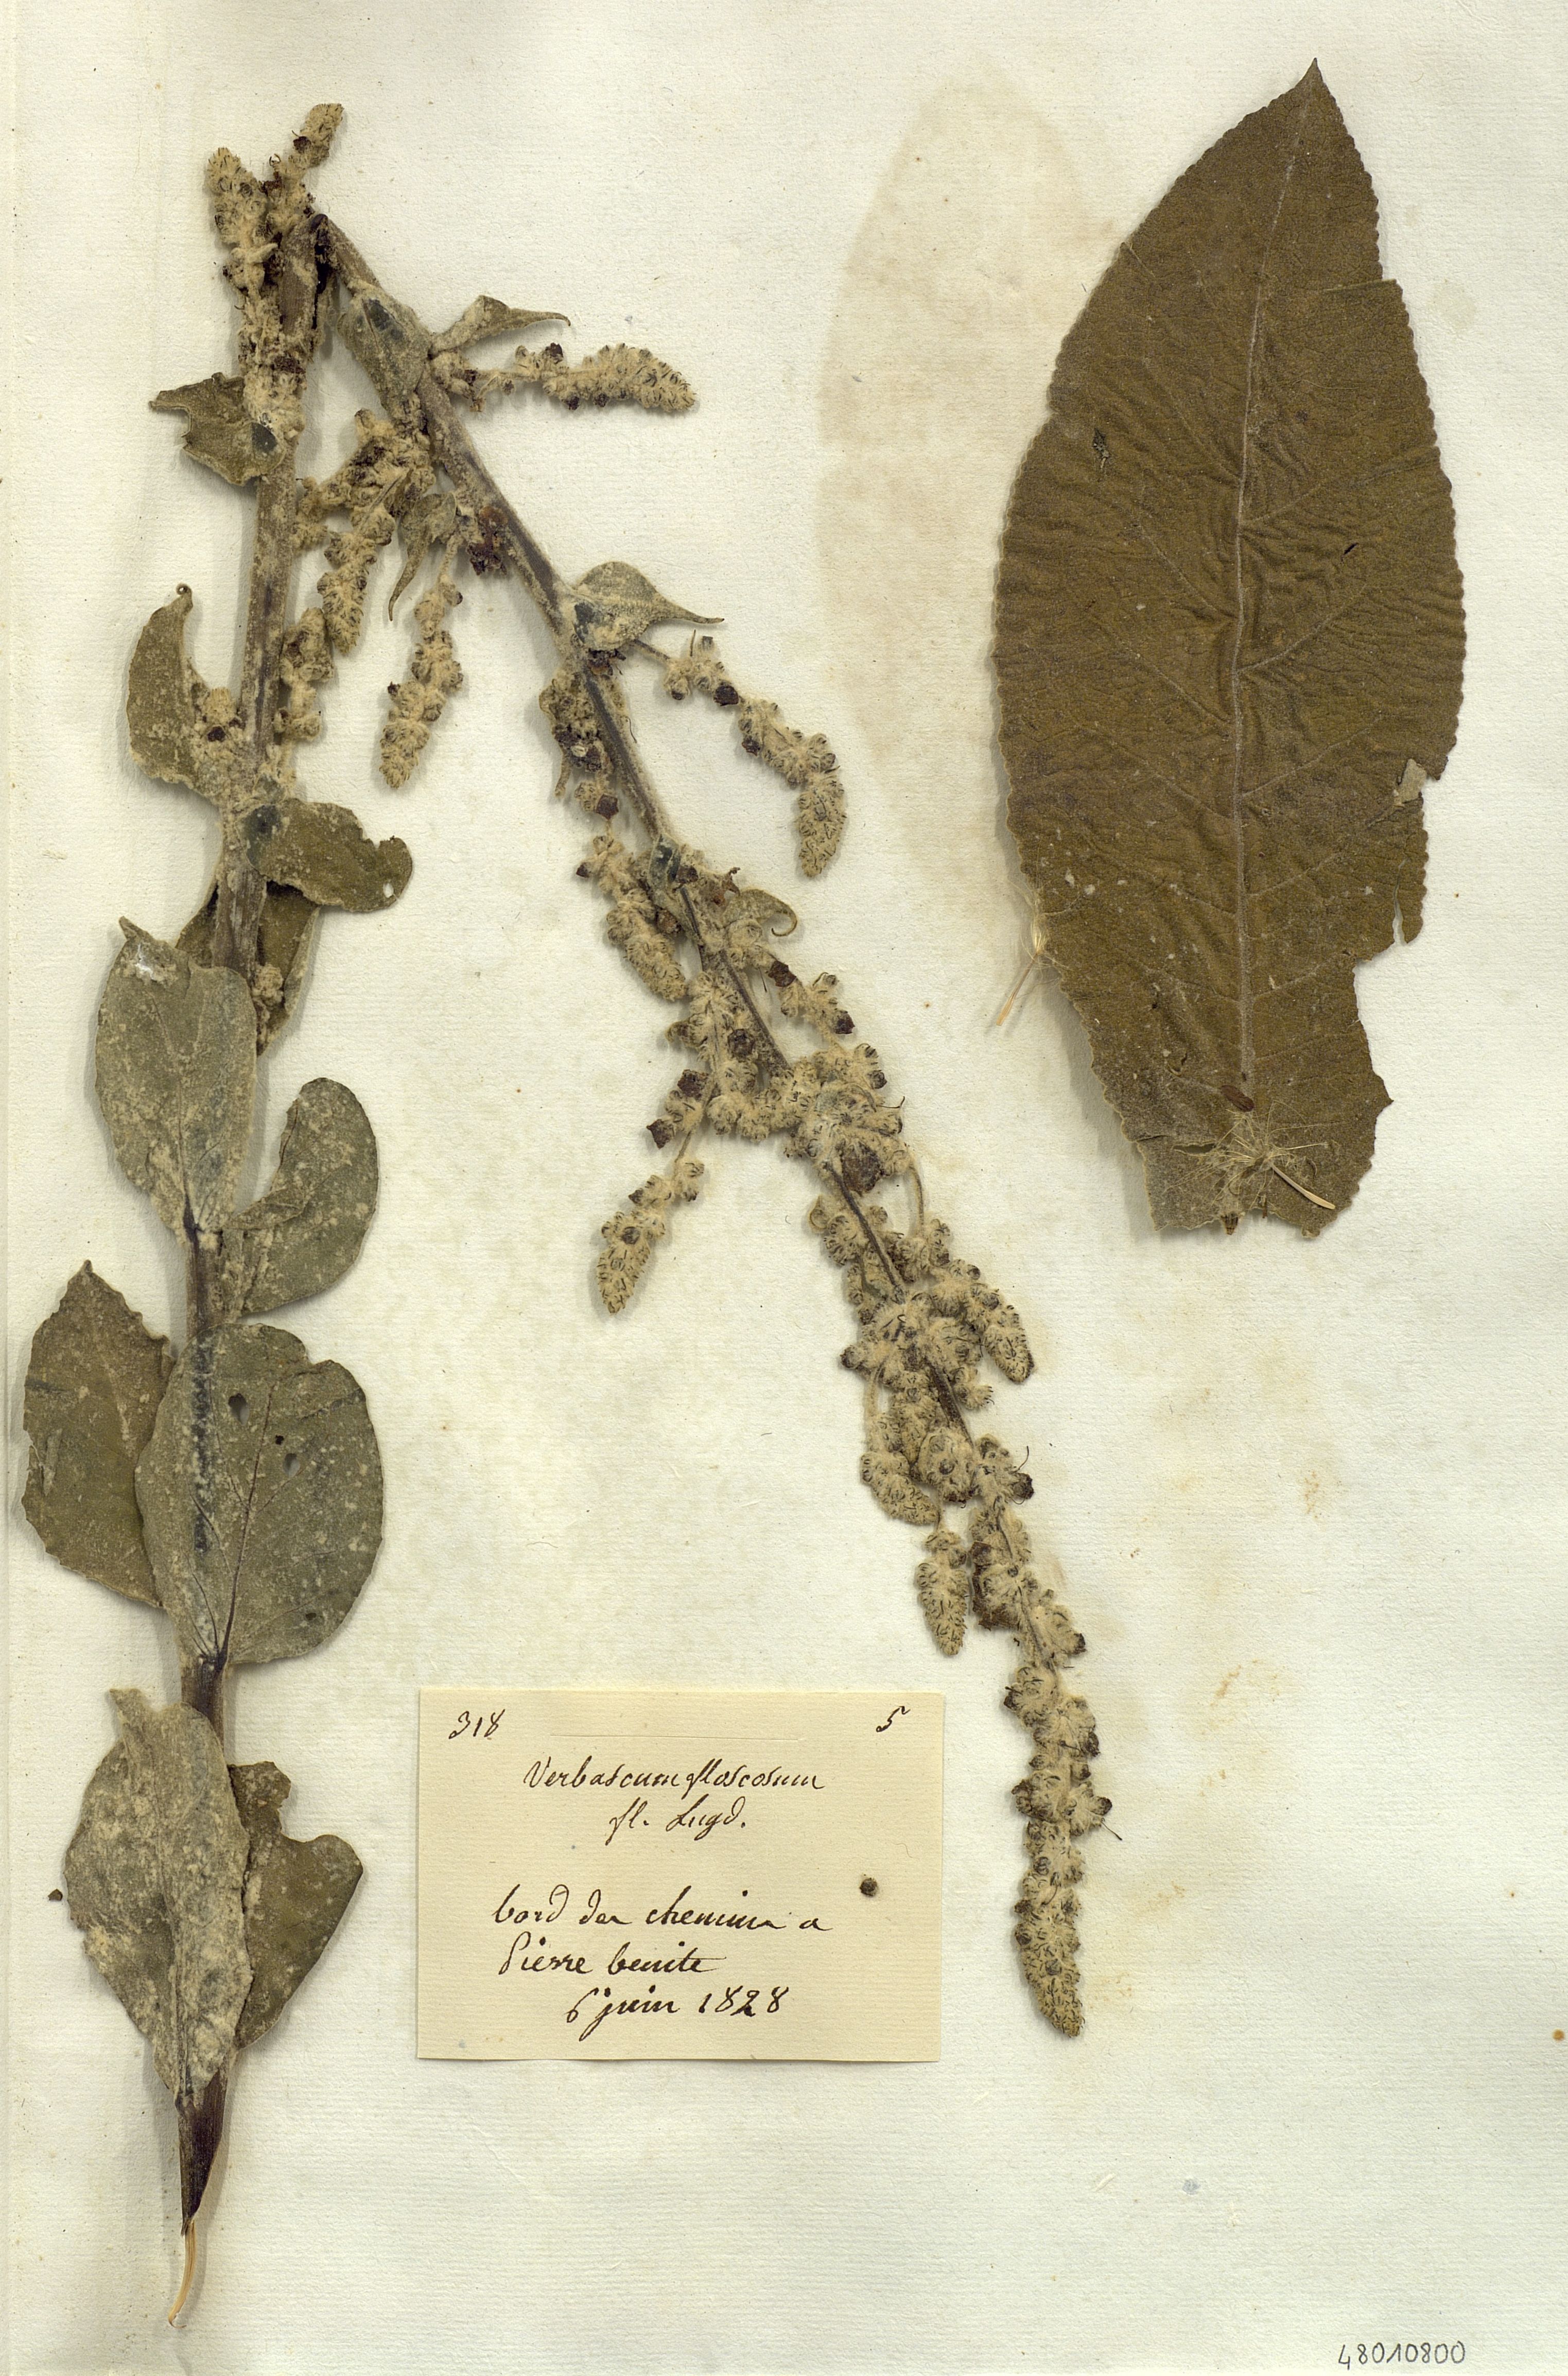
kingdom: Plantae
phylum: Tracheophyta
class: Magnoliopsida
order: Lamiales
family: Scrophulariaceae
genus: Verbascum
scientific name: Verbascum
